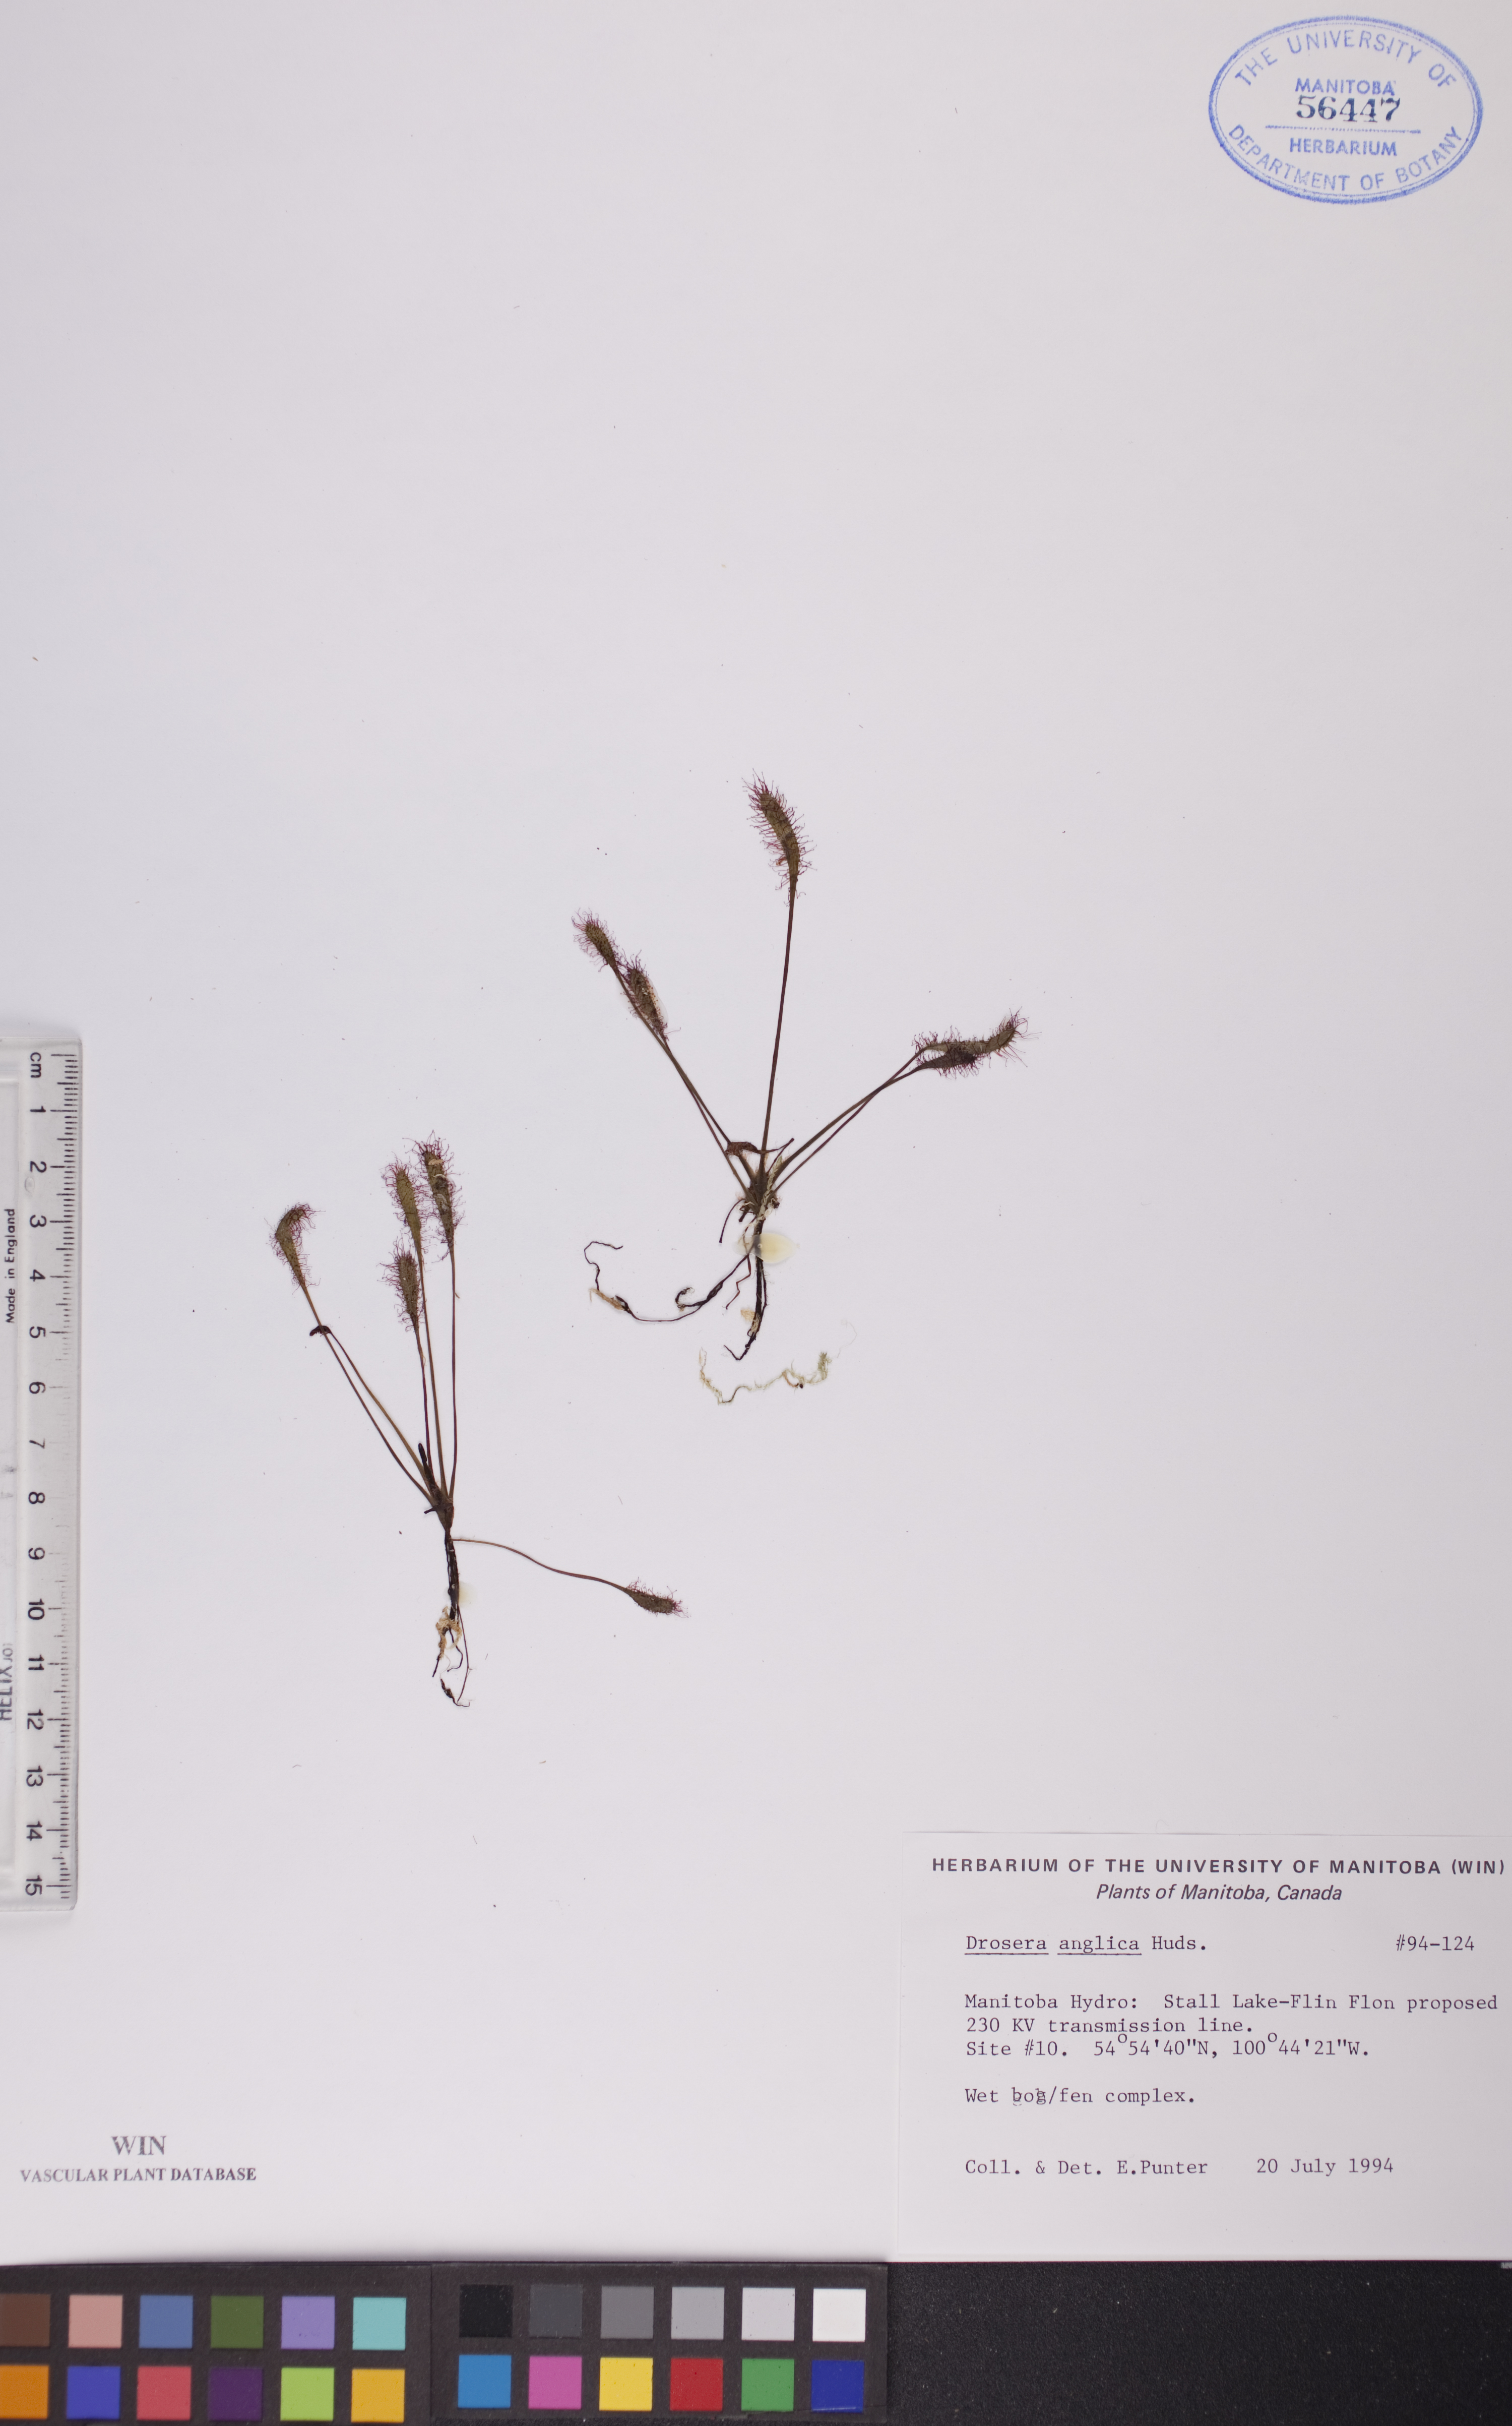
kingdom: Plantae
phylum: Tracheophyta
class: Magnoliopsida
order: Caryophyllales
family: Droseraceae
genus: Drosera
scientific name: Drosera anglica
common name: Great sundew
